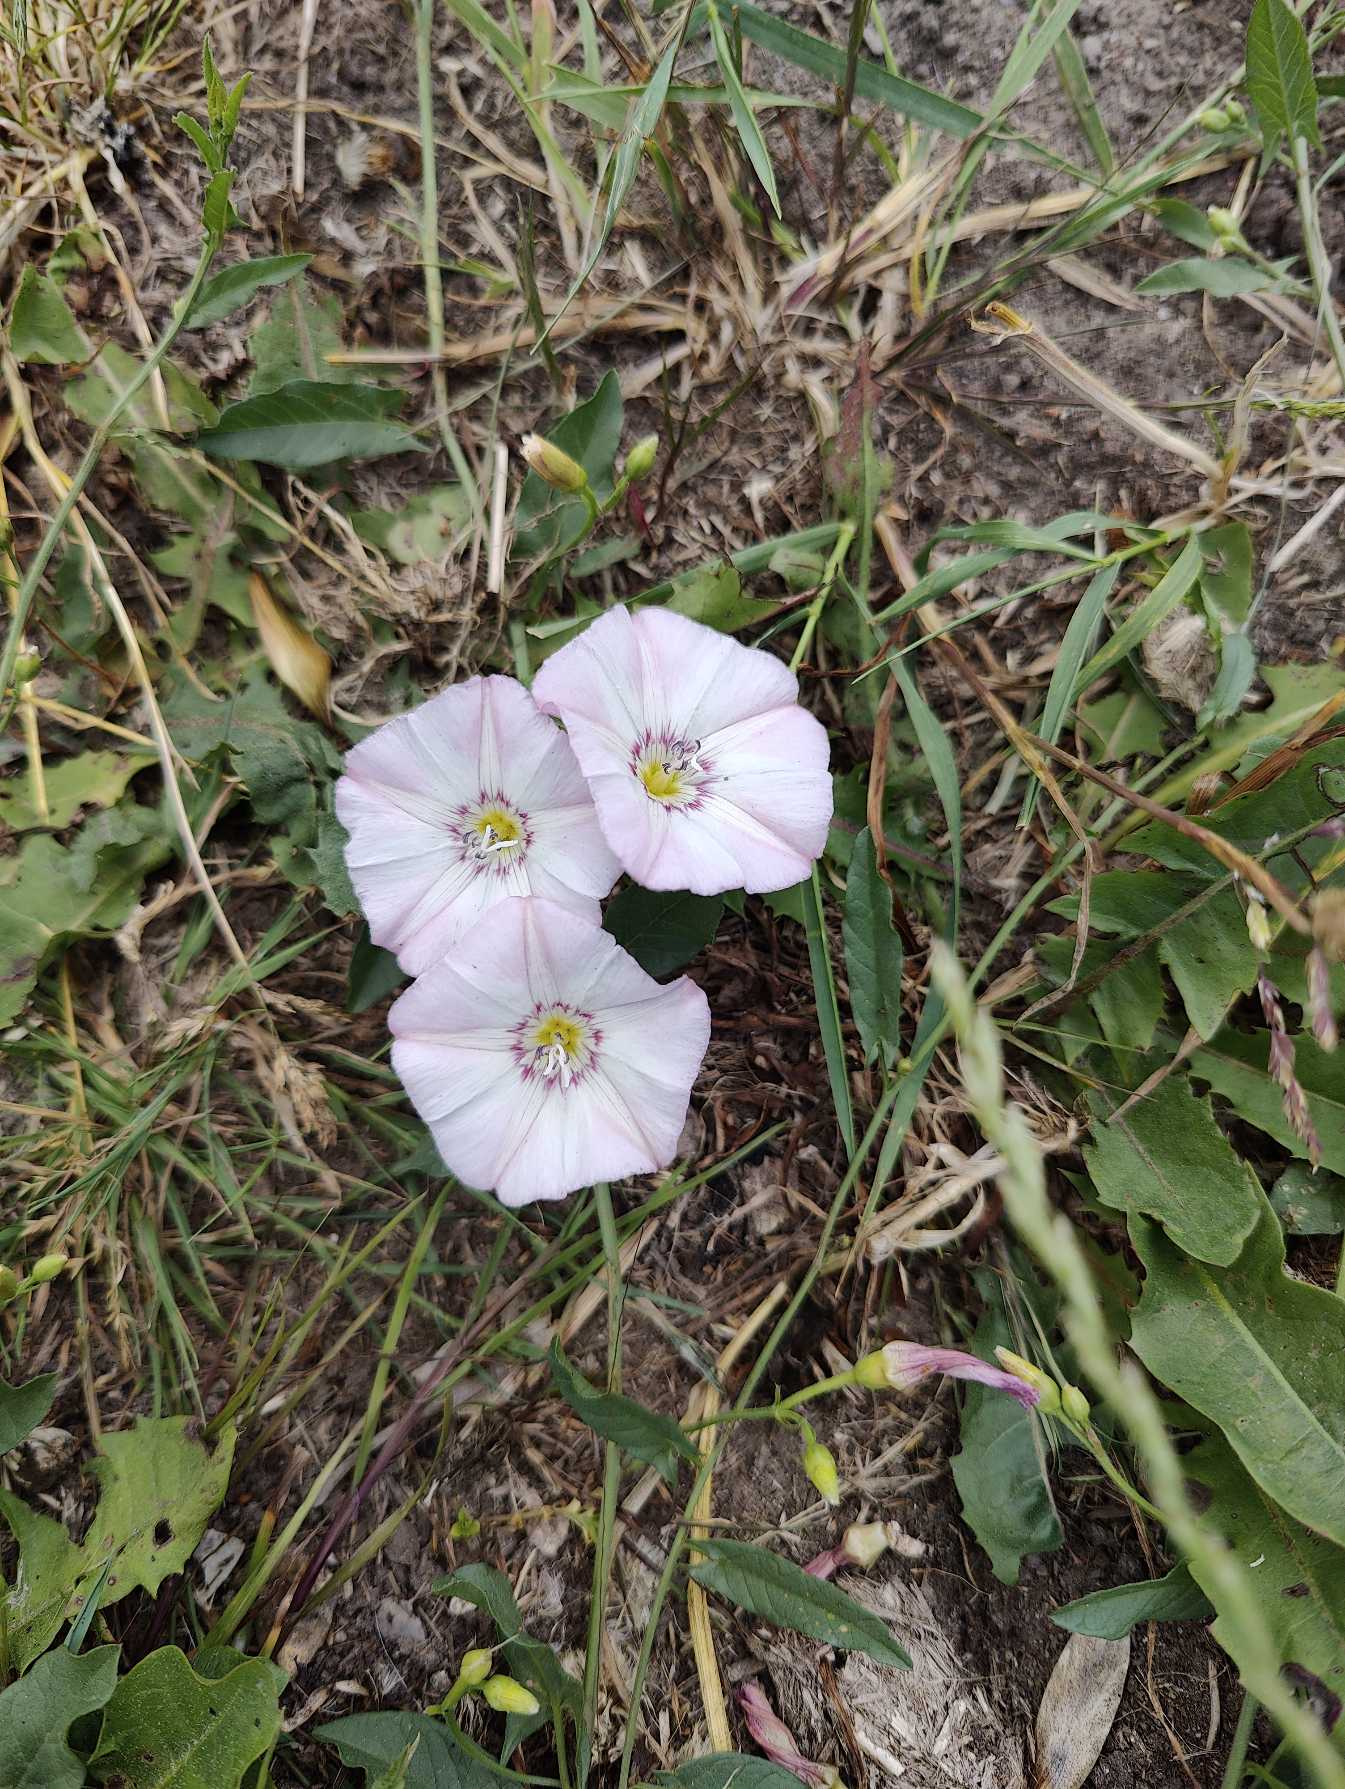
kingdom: Plantae
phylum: Tracheophyta
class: Magnoliopsida
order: Solanales
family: Convolvulaceae
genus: Convolvulus
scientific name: Convolvulus arvensis
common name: Ager-snerle
